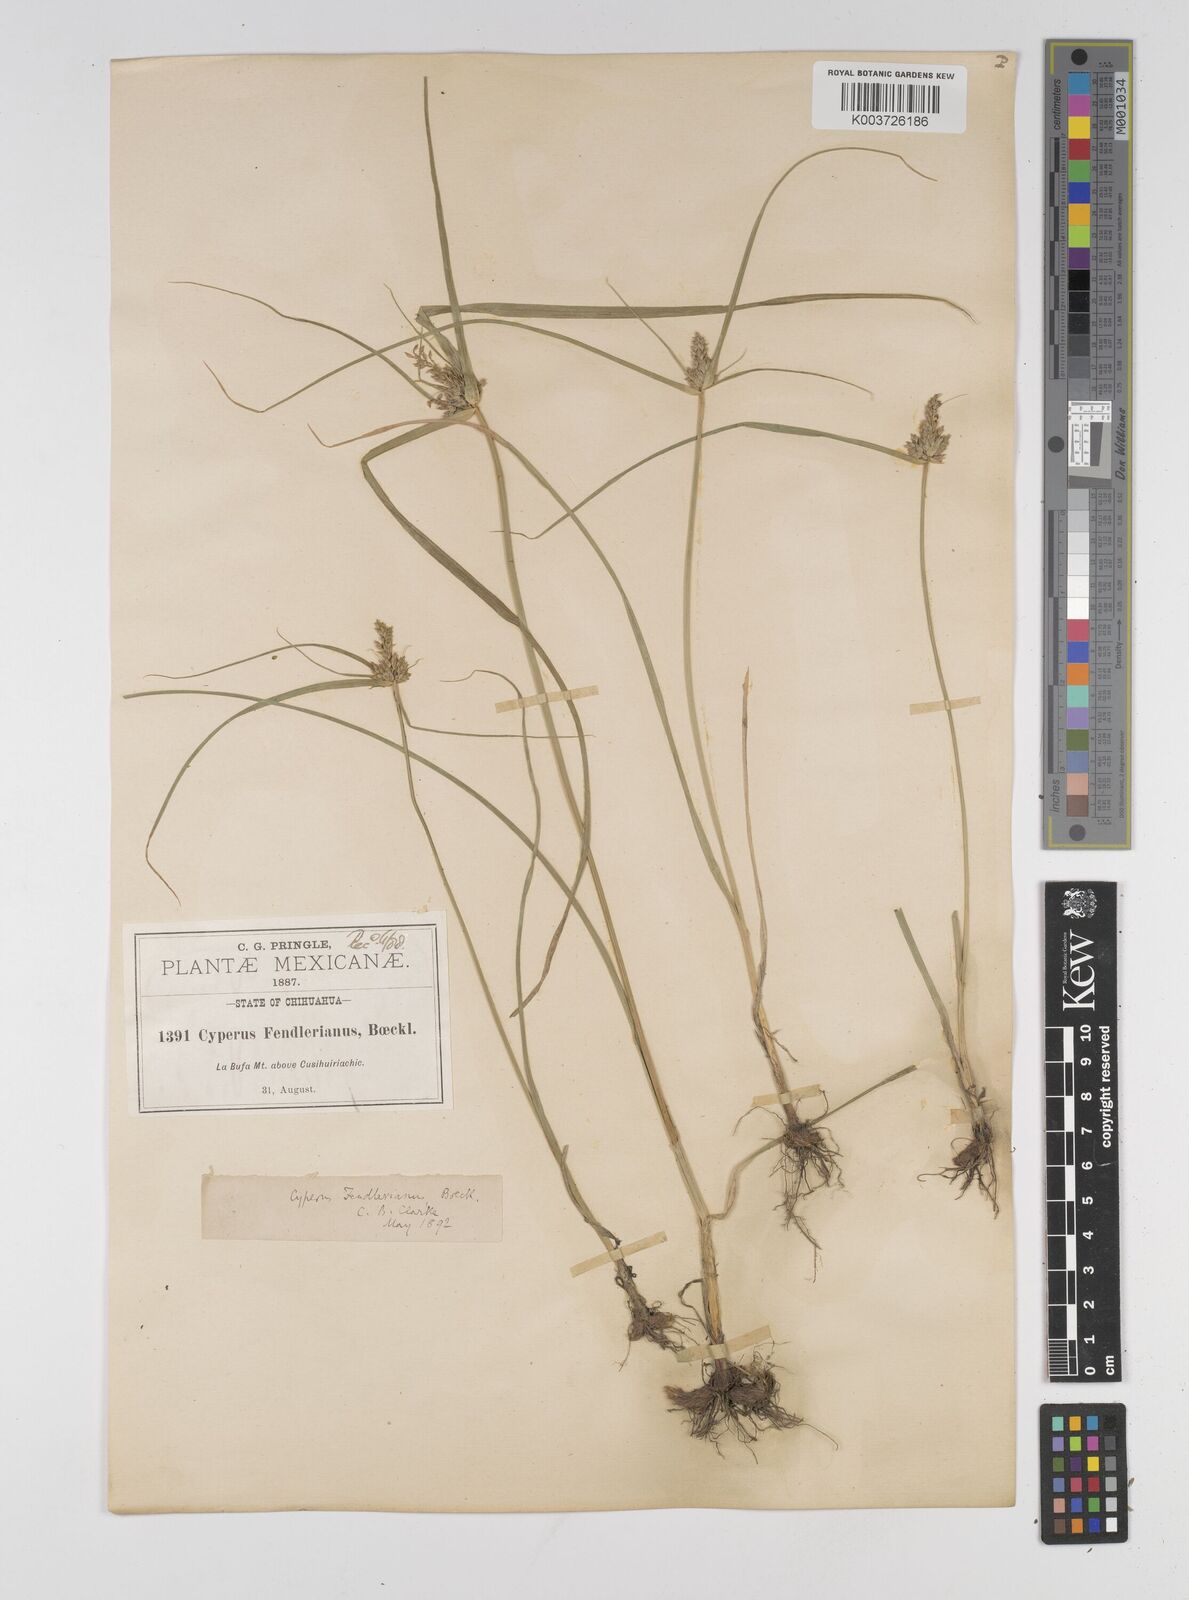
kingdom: Plantae
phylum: Tracheophyta
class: Liliopsida
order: Poales
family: Cyperaceae
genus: Cyperus
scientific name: Cyperus fendlerianus
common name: Fendler flat sedge
